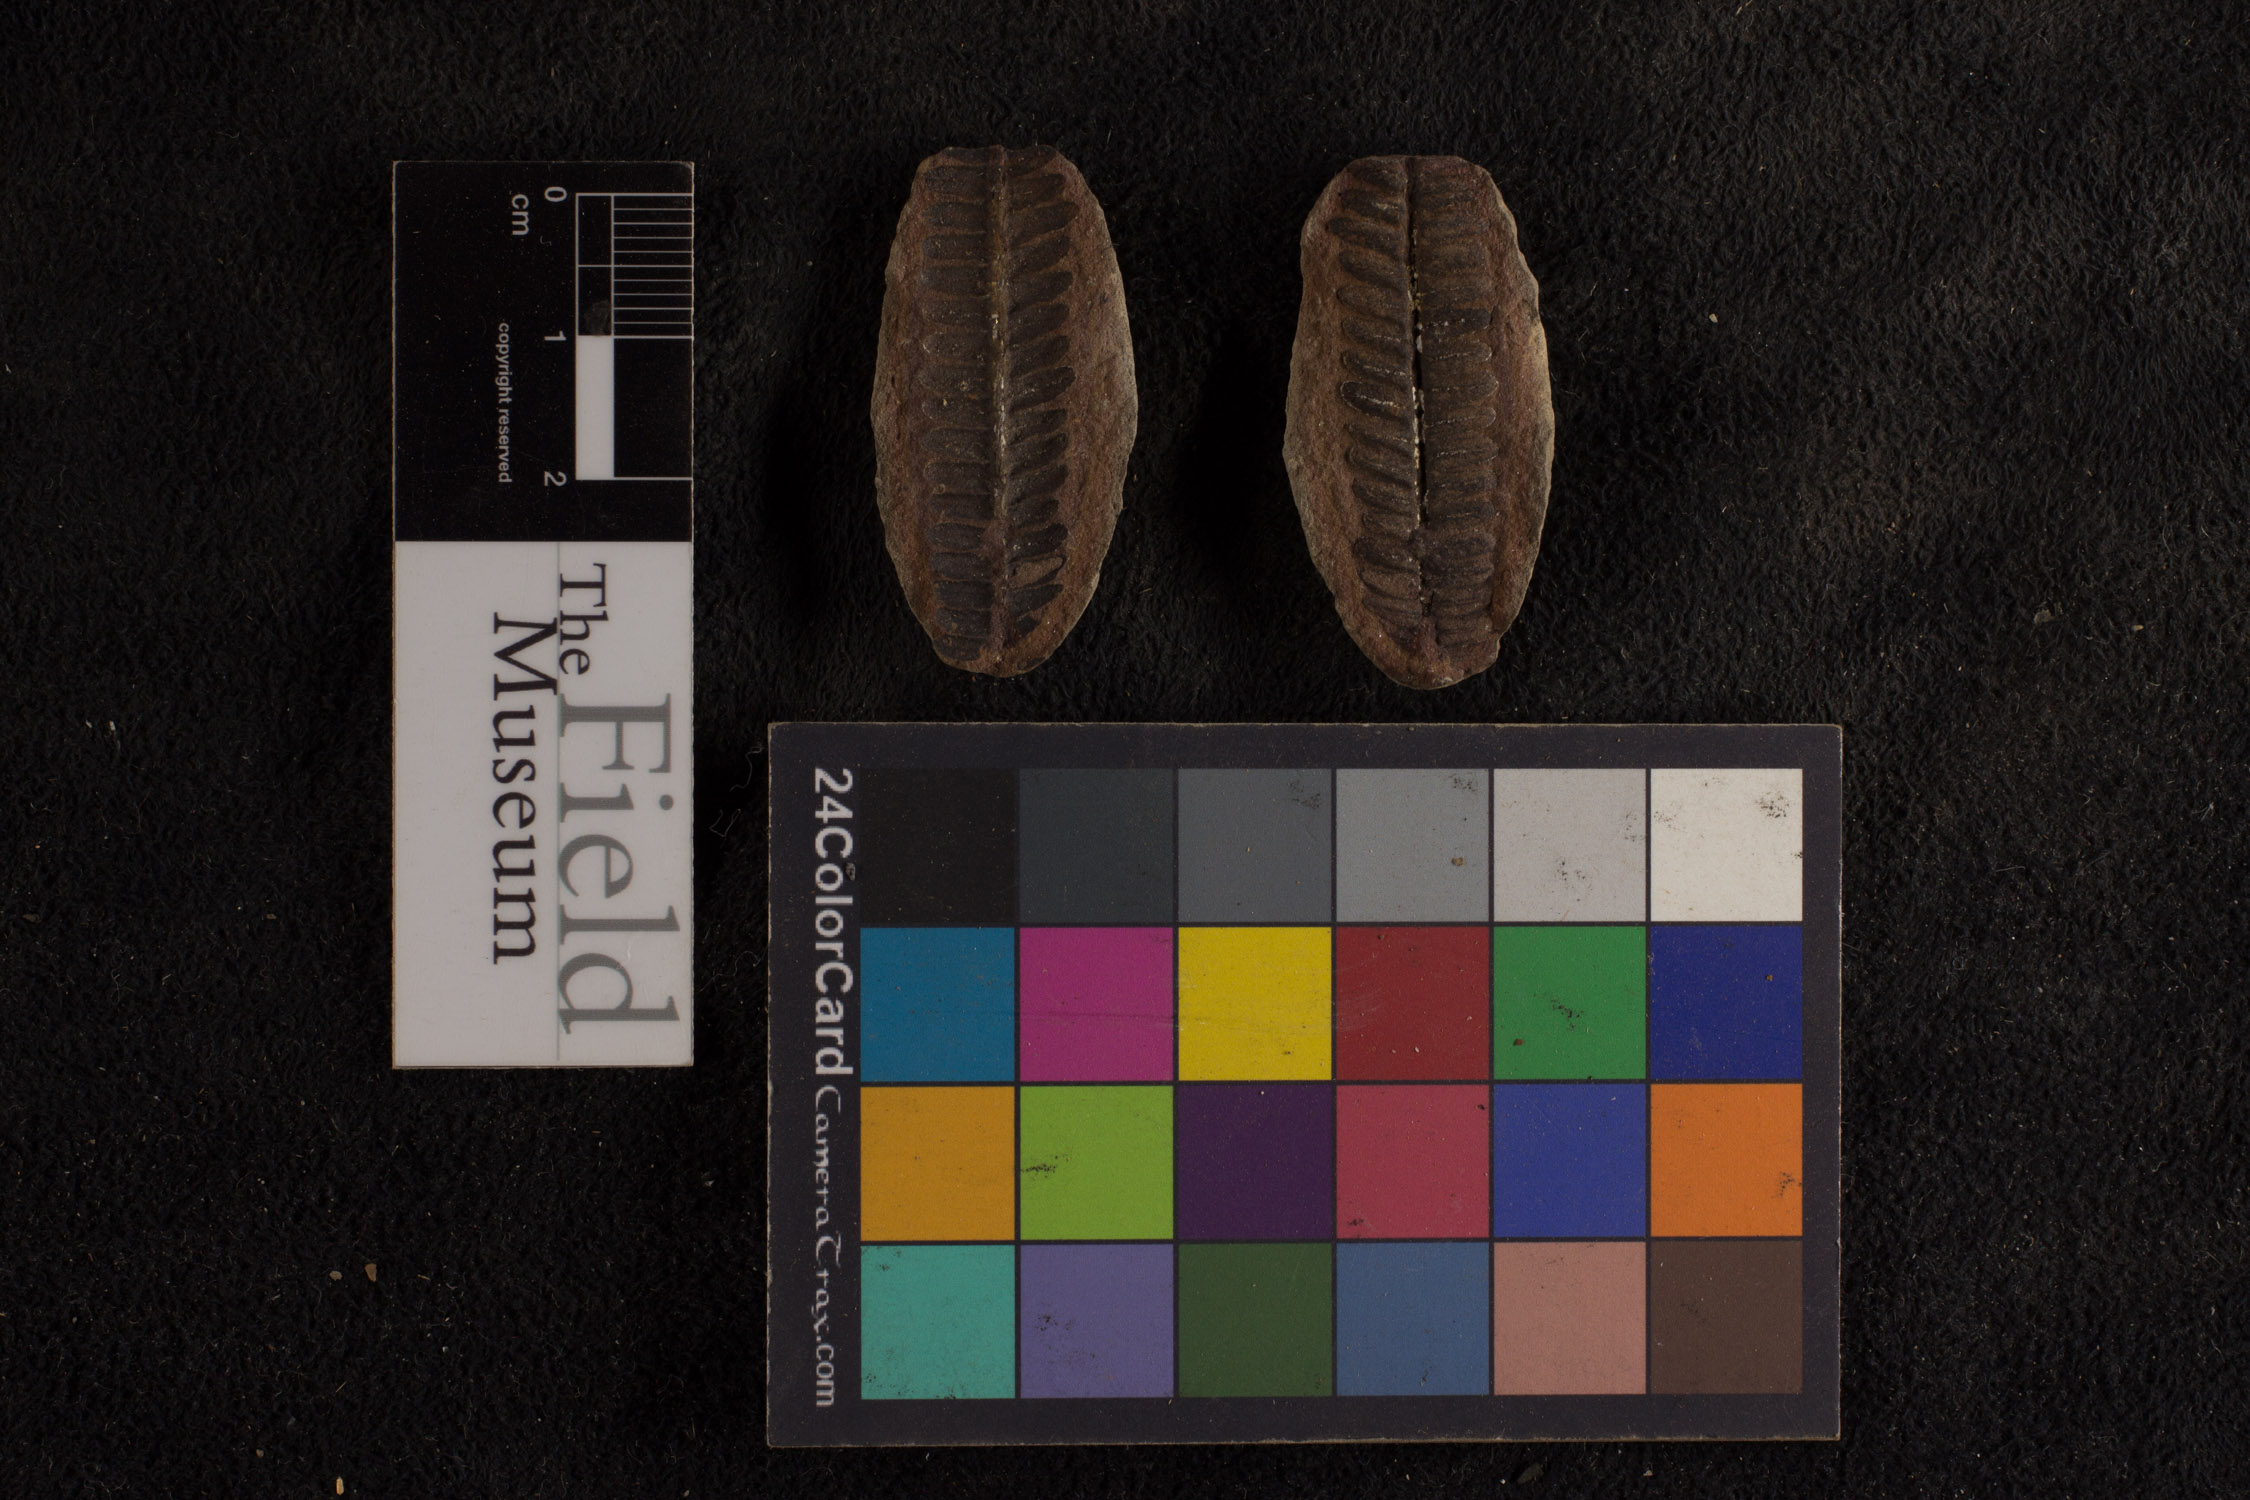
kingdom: Plantae
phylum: Tracheophyta
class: Polypodiopsida
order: Marattiales
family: Asterothecaceae
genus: Pecopteris
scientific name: Pecopteris
